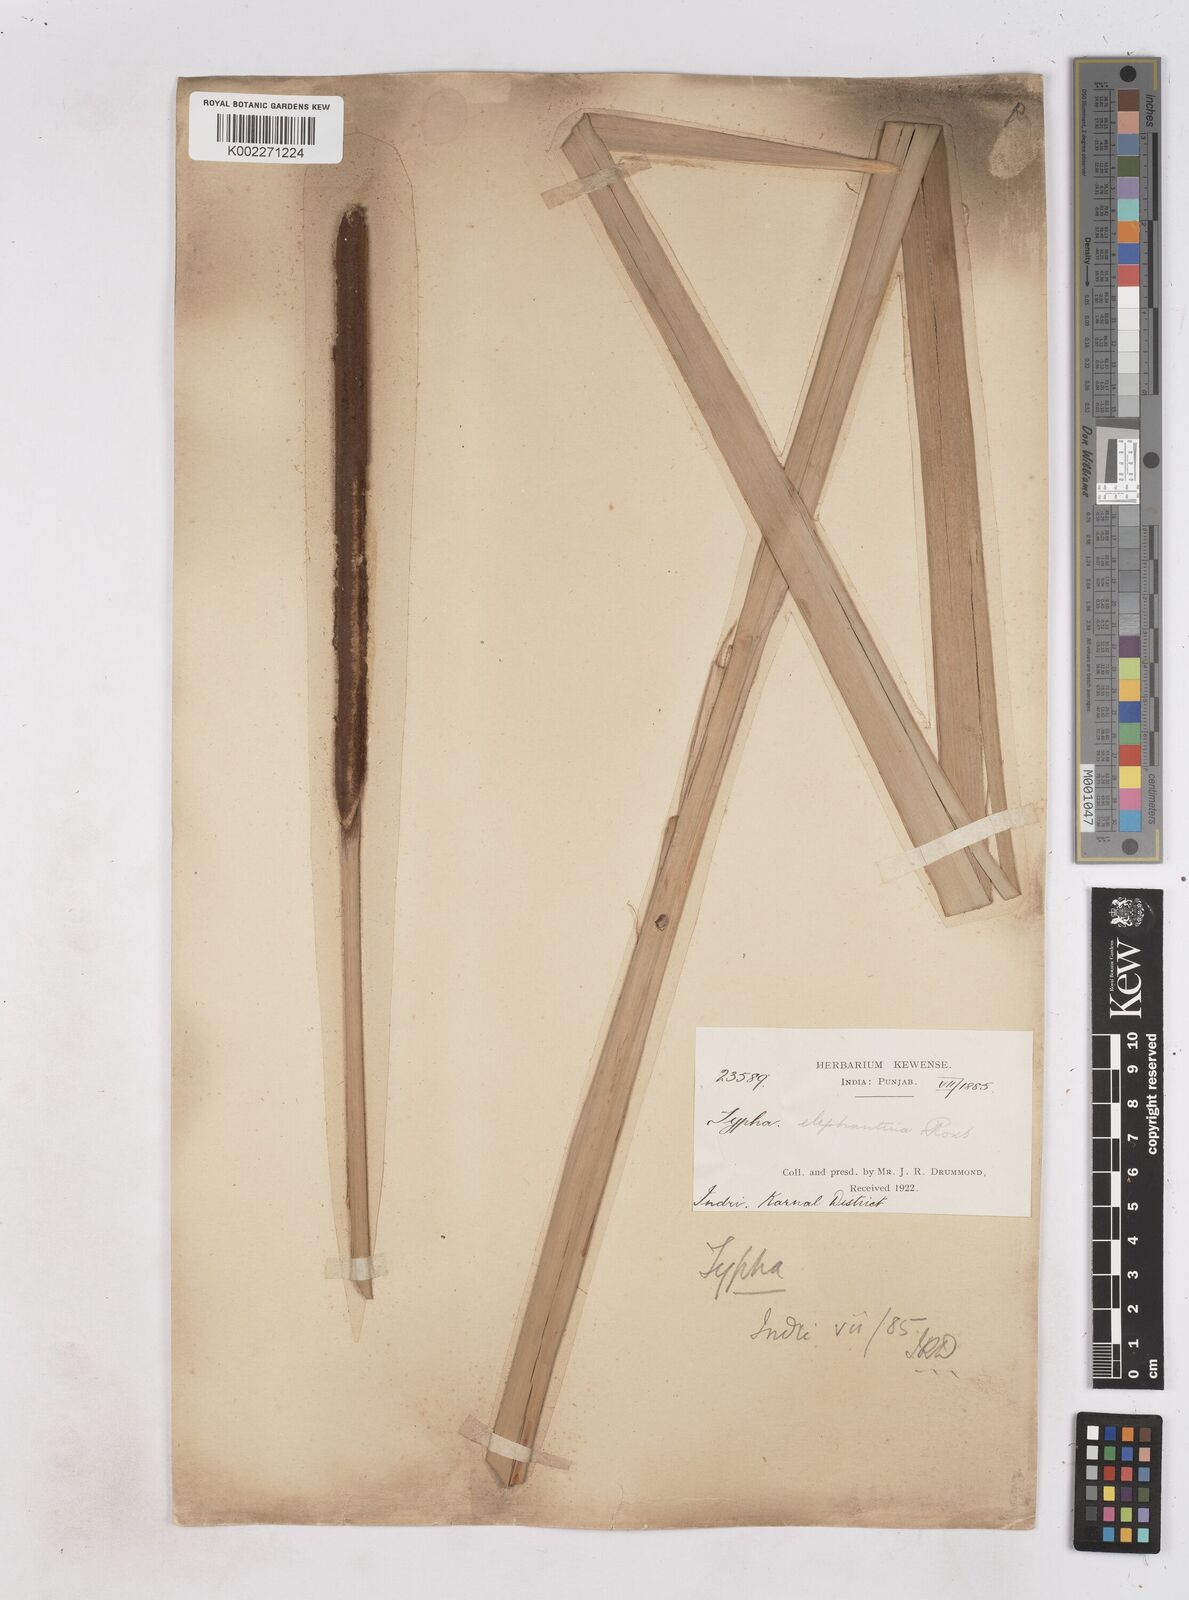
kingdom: Plantae
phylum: Tracheophyta
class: Liliopsida
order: Poales
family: Typhaceae
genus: Typha
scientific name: Typha elephantina
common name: Indian reed-grass
